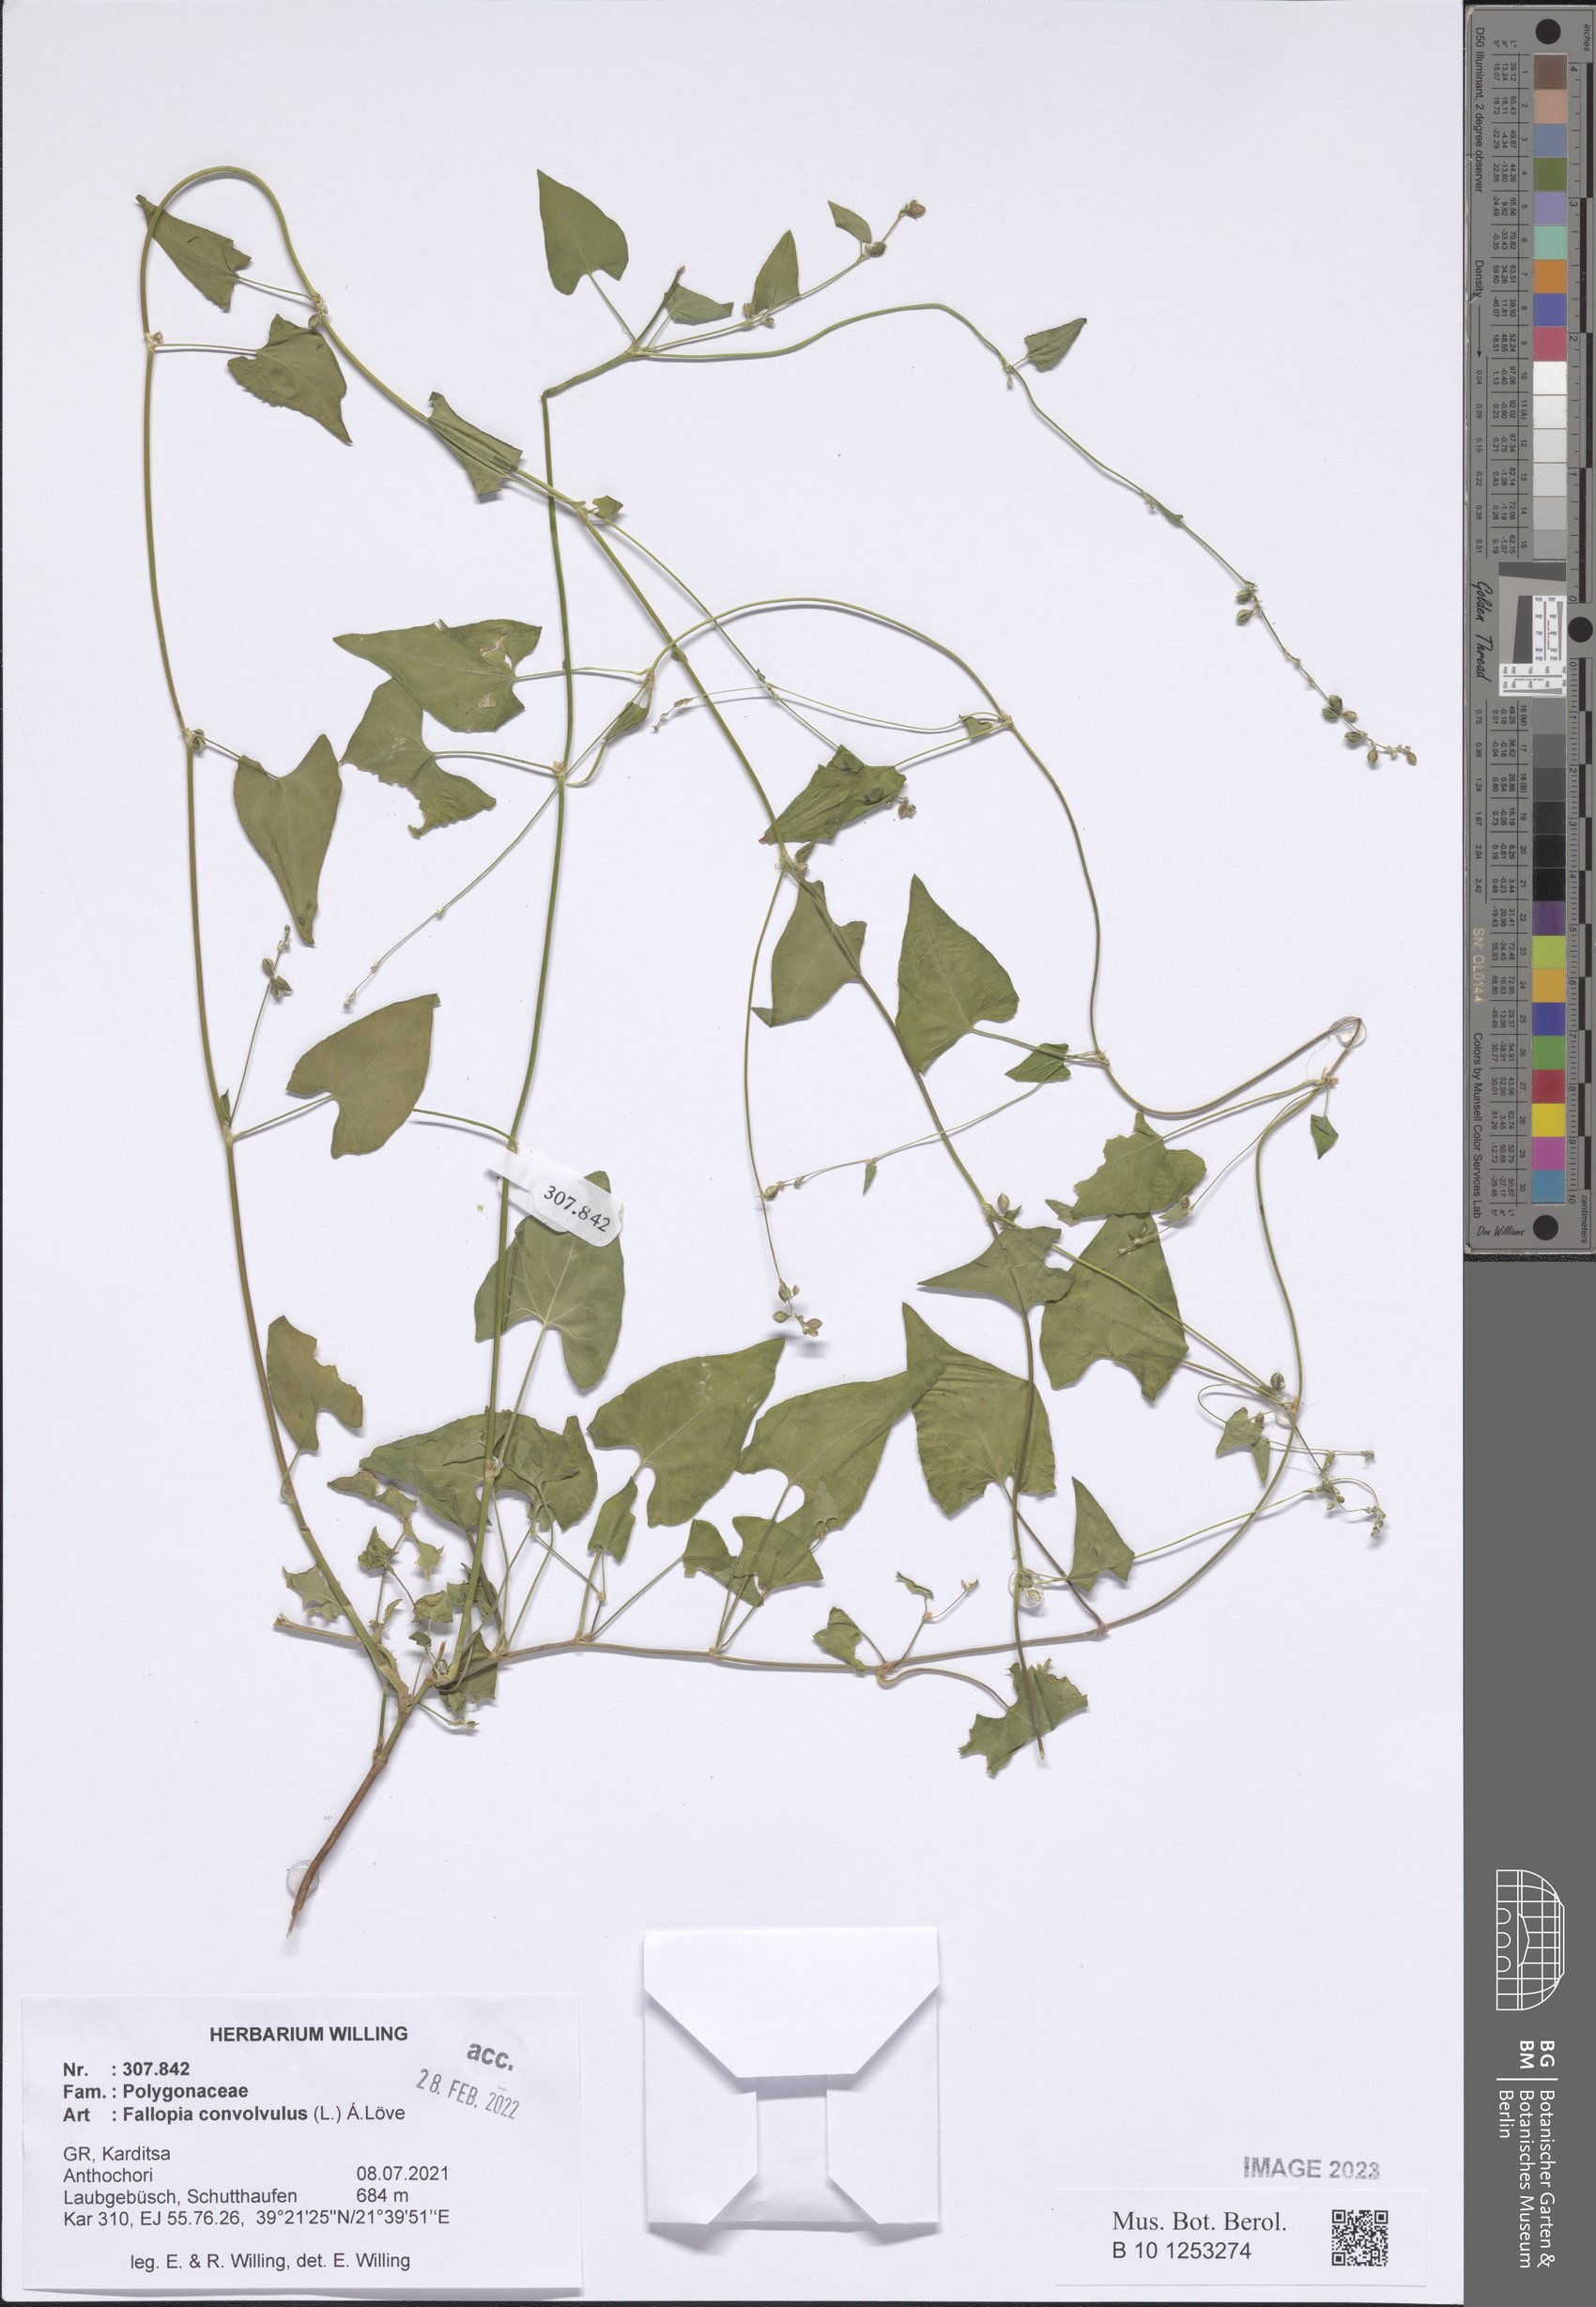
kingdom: Plantae
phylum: Tracheophyta
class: Magnoliopsida
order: Caryophyllales
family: Polygonaceae
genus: Fallopia
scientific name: Fallopia convolvulus
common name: Black bindweed
